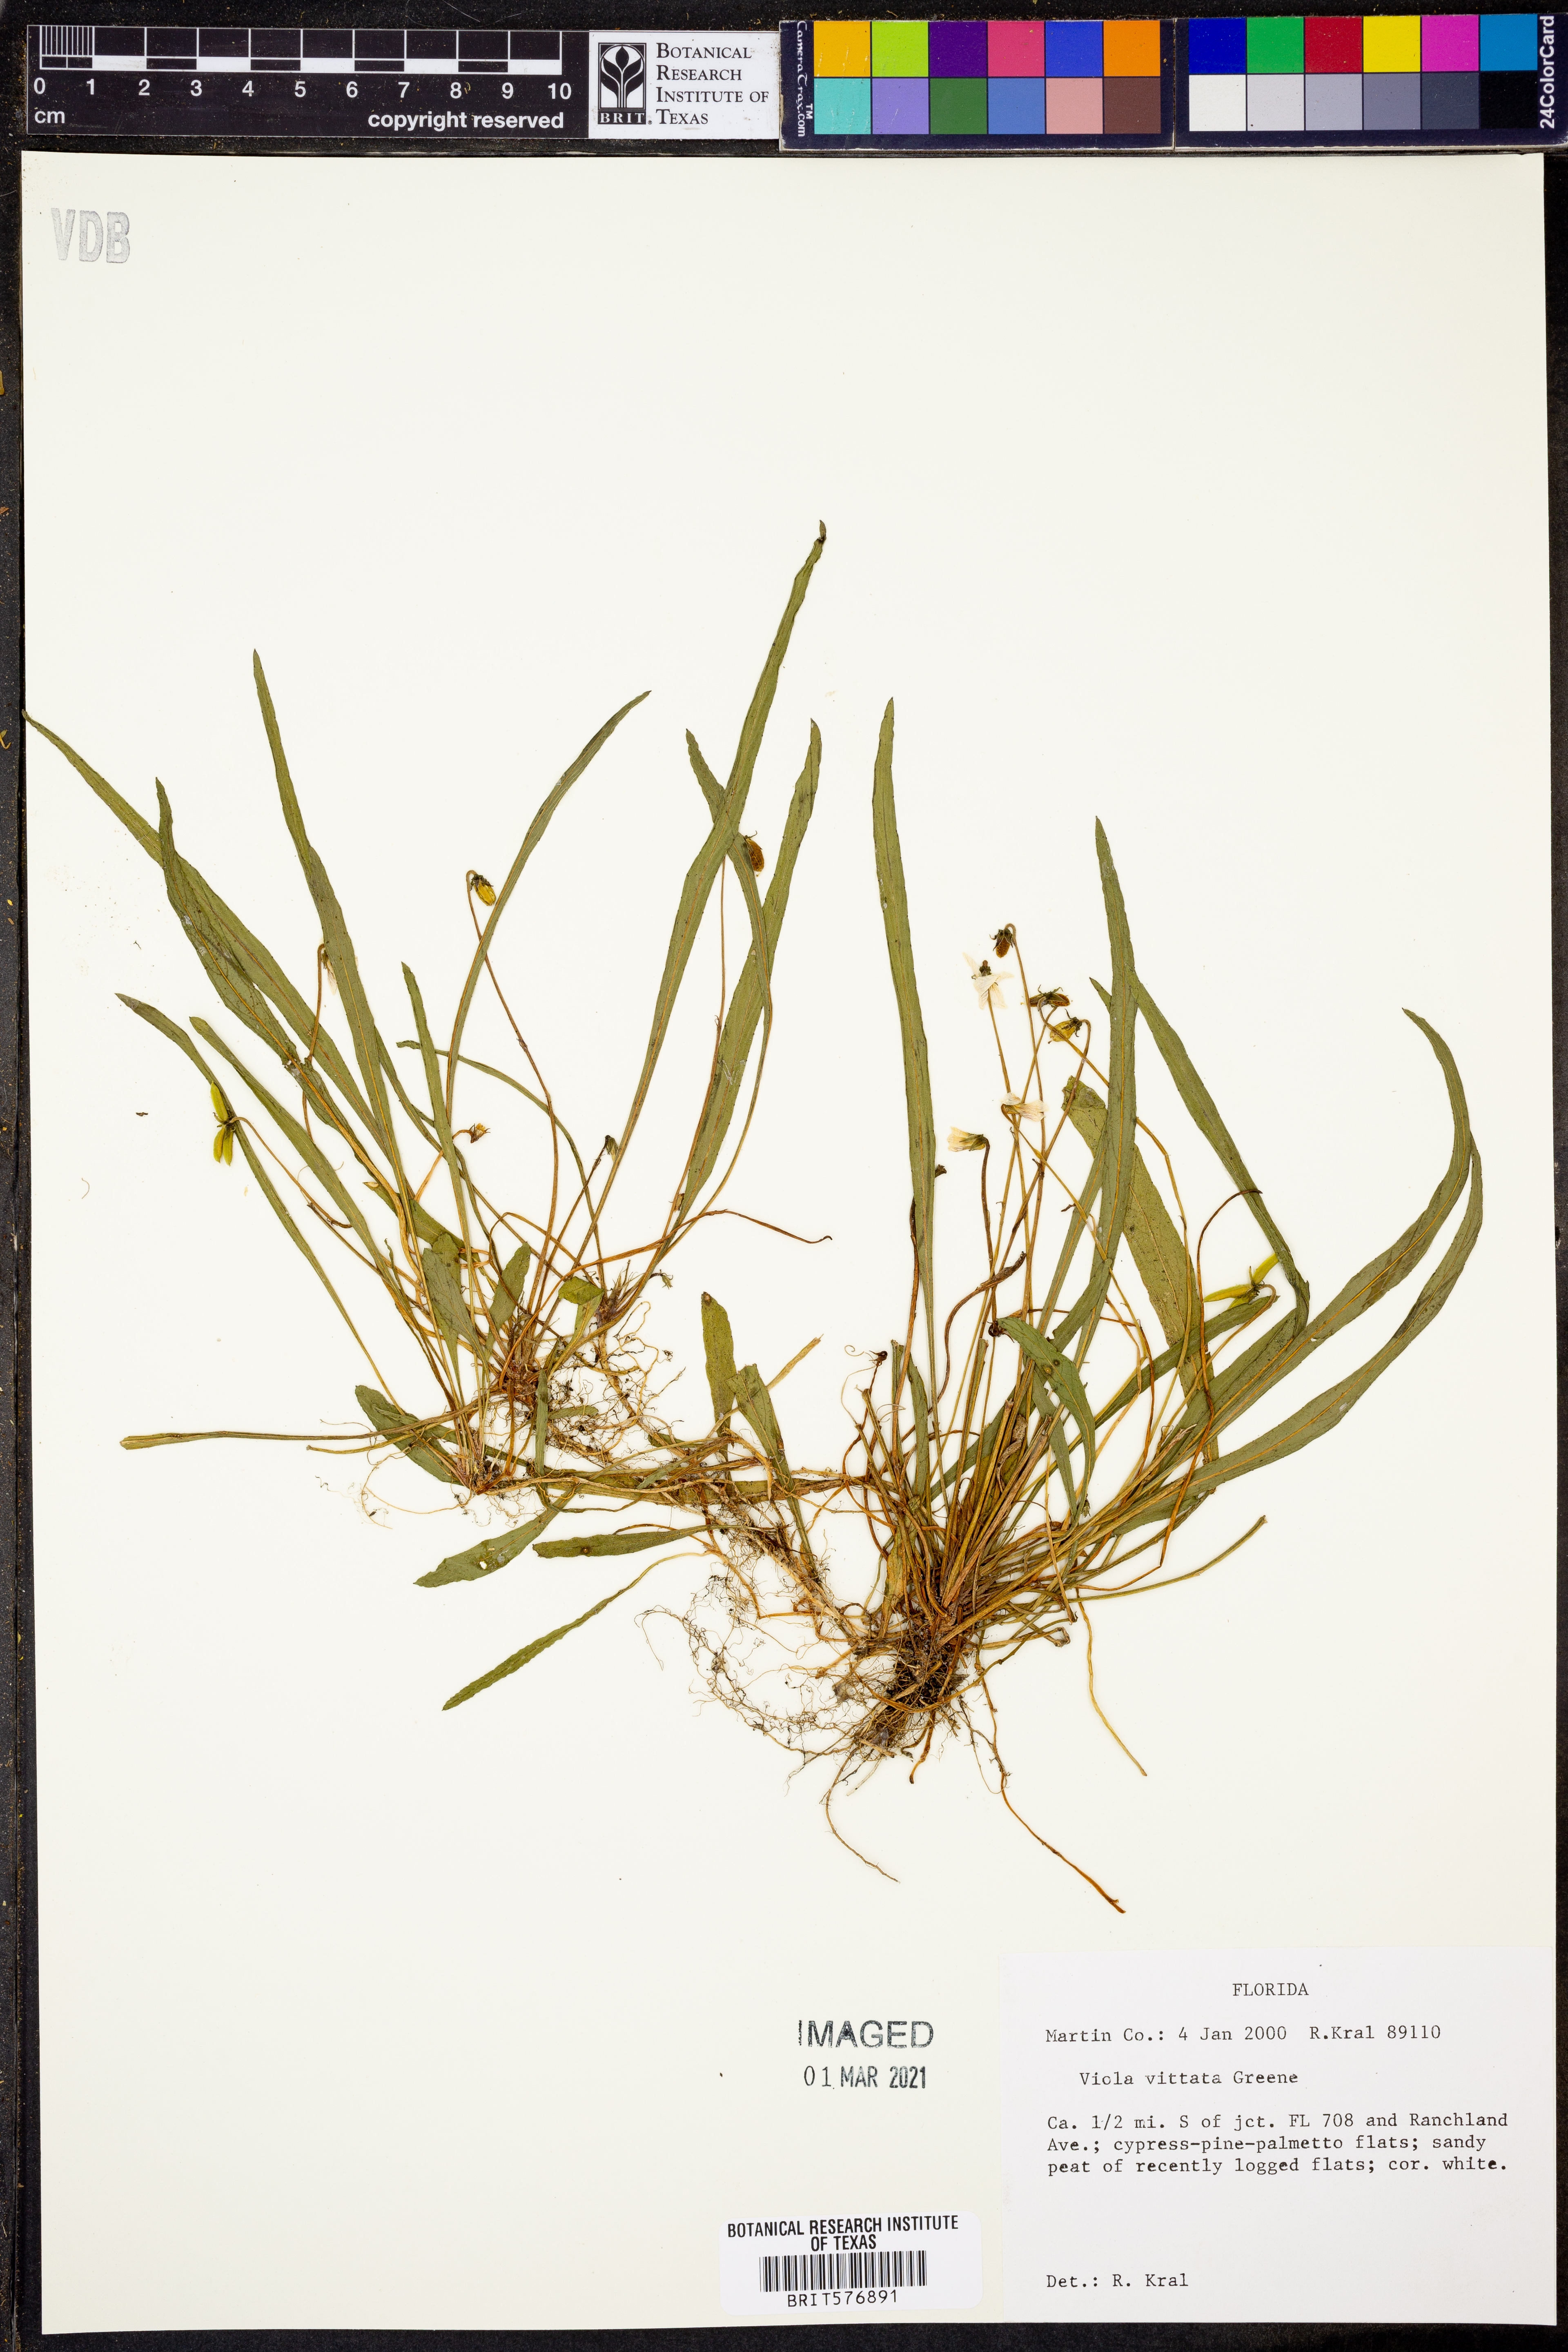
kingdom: Plantae
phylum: Tracheophyta
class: Magnoliopsida
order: Malpighiales
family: Violaceae
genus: Viola
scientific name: Viola vittata
